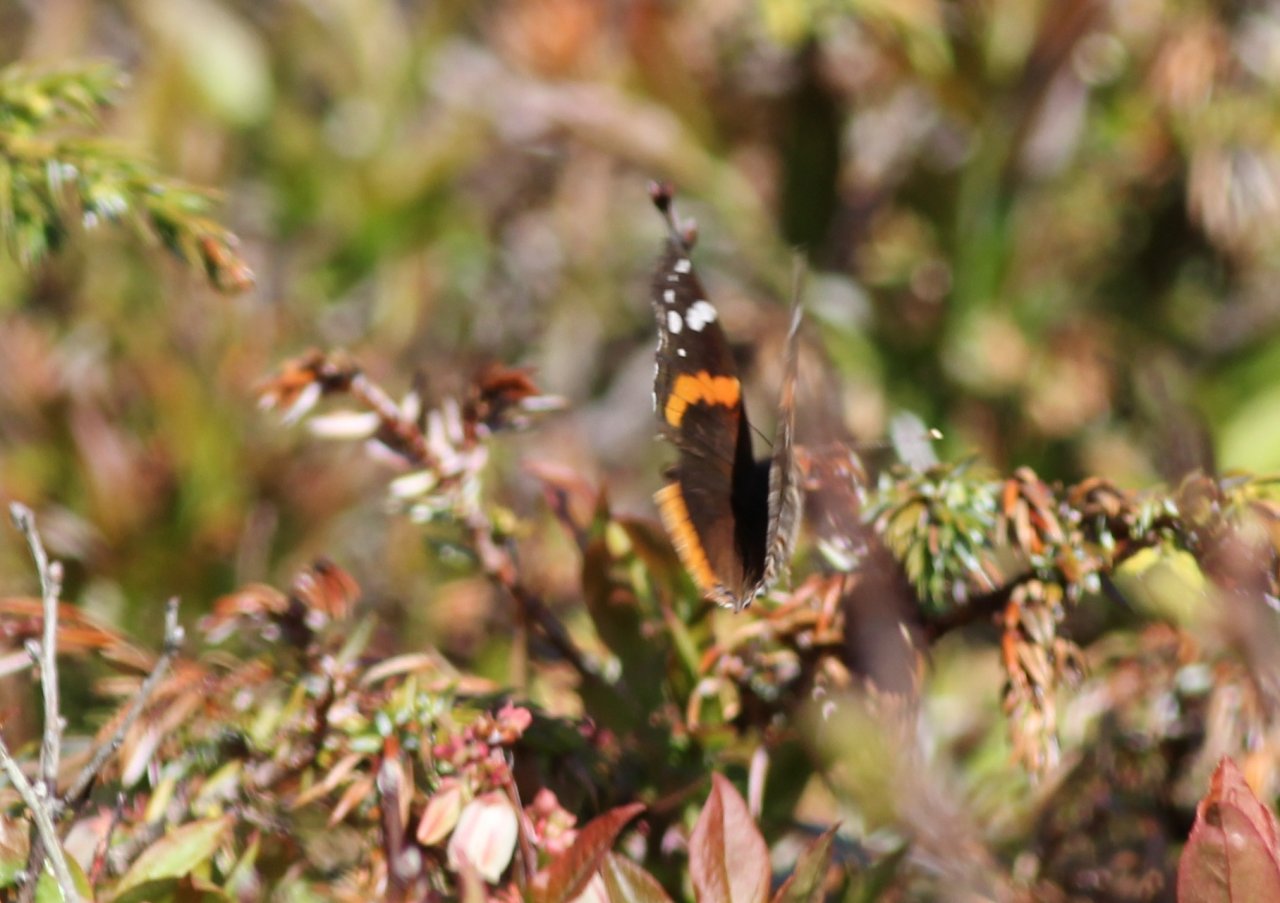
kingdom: Animalia
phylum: Arthropoda
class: Insecta
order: Lepidoptera
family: Nymphalidae
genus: Vanessa
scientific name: Vanessa atalanta
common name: Red Admiral
